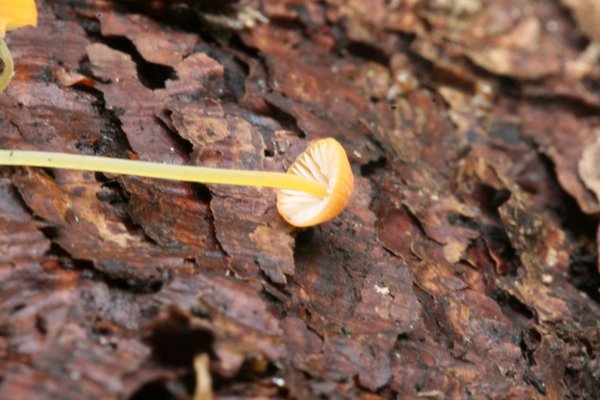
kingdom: Fungi
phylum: Basidiomycota
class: Agaricomycetes
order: Agaricales
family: Mycenaceae
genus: Mycena
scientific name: Mycena acicula
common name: orange huesvamp
